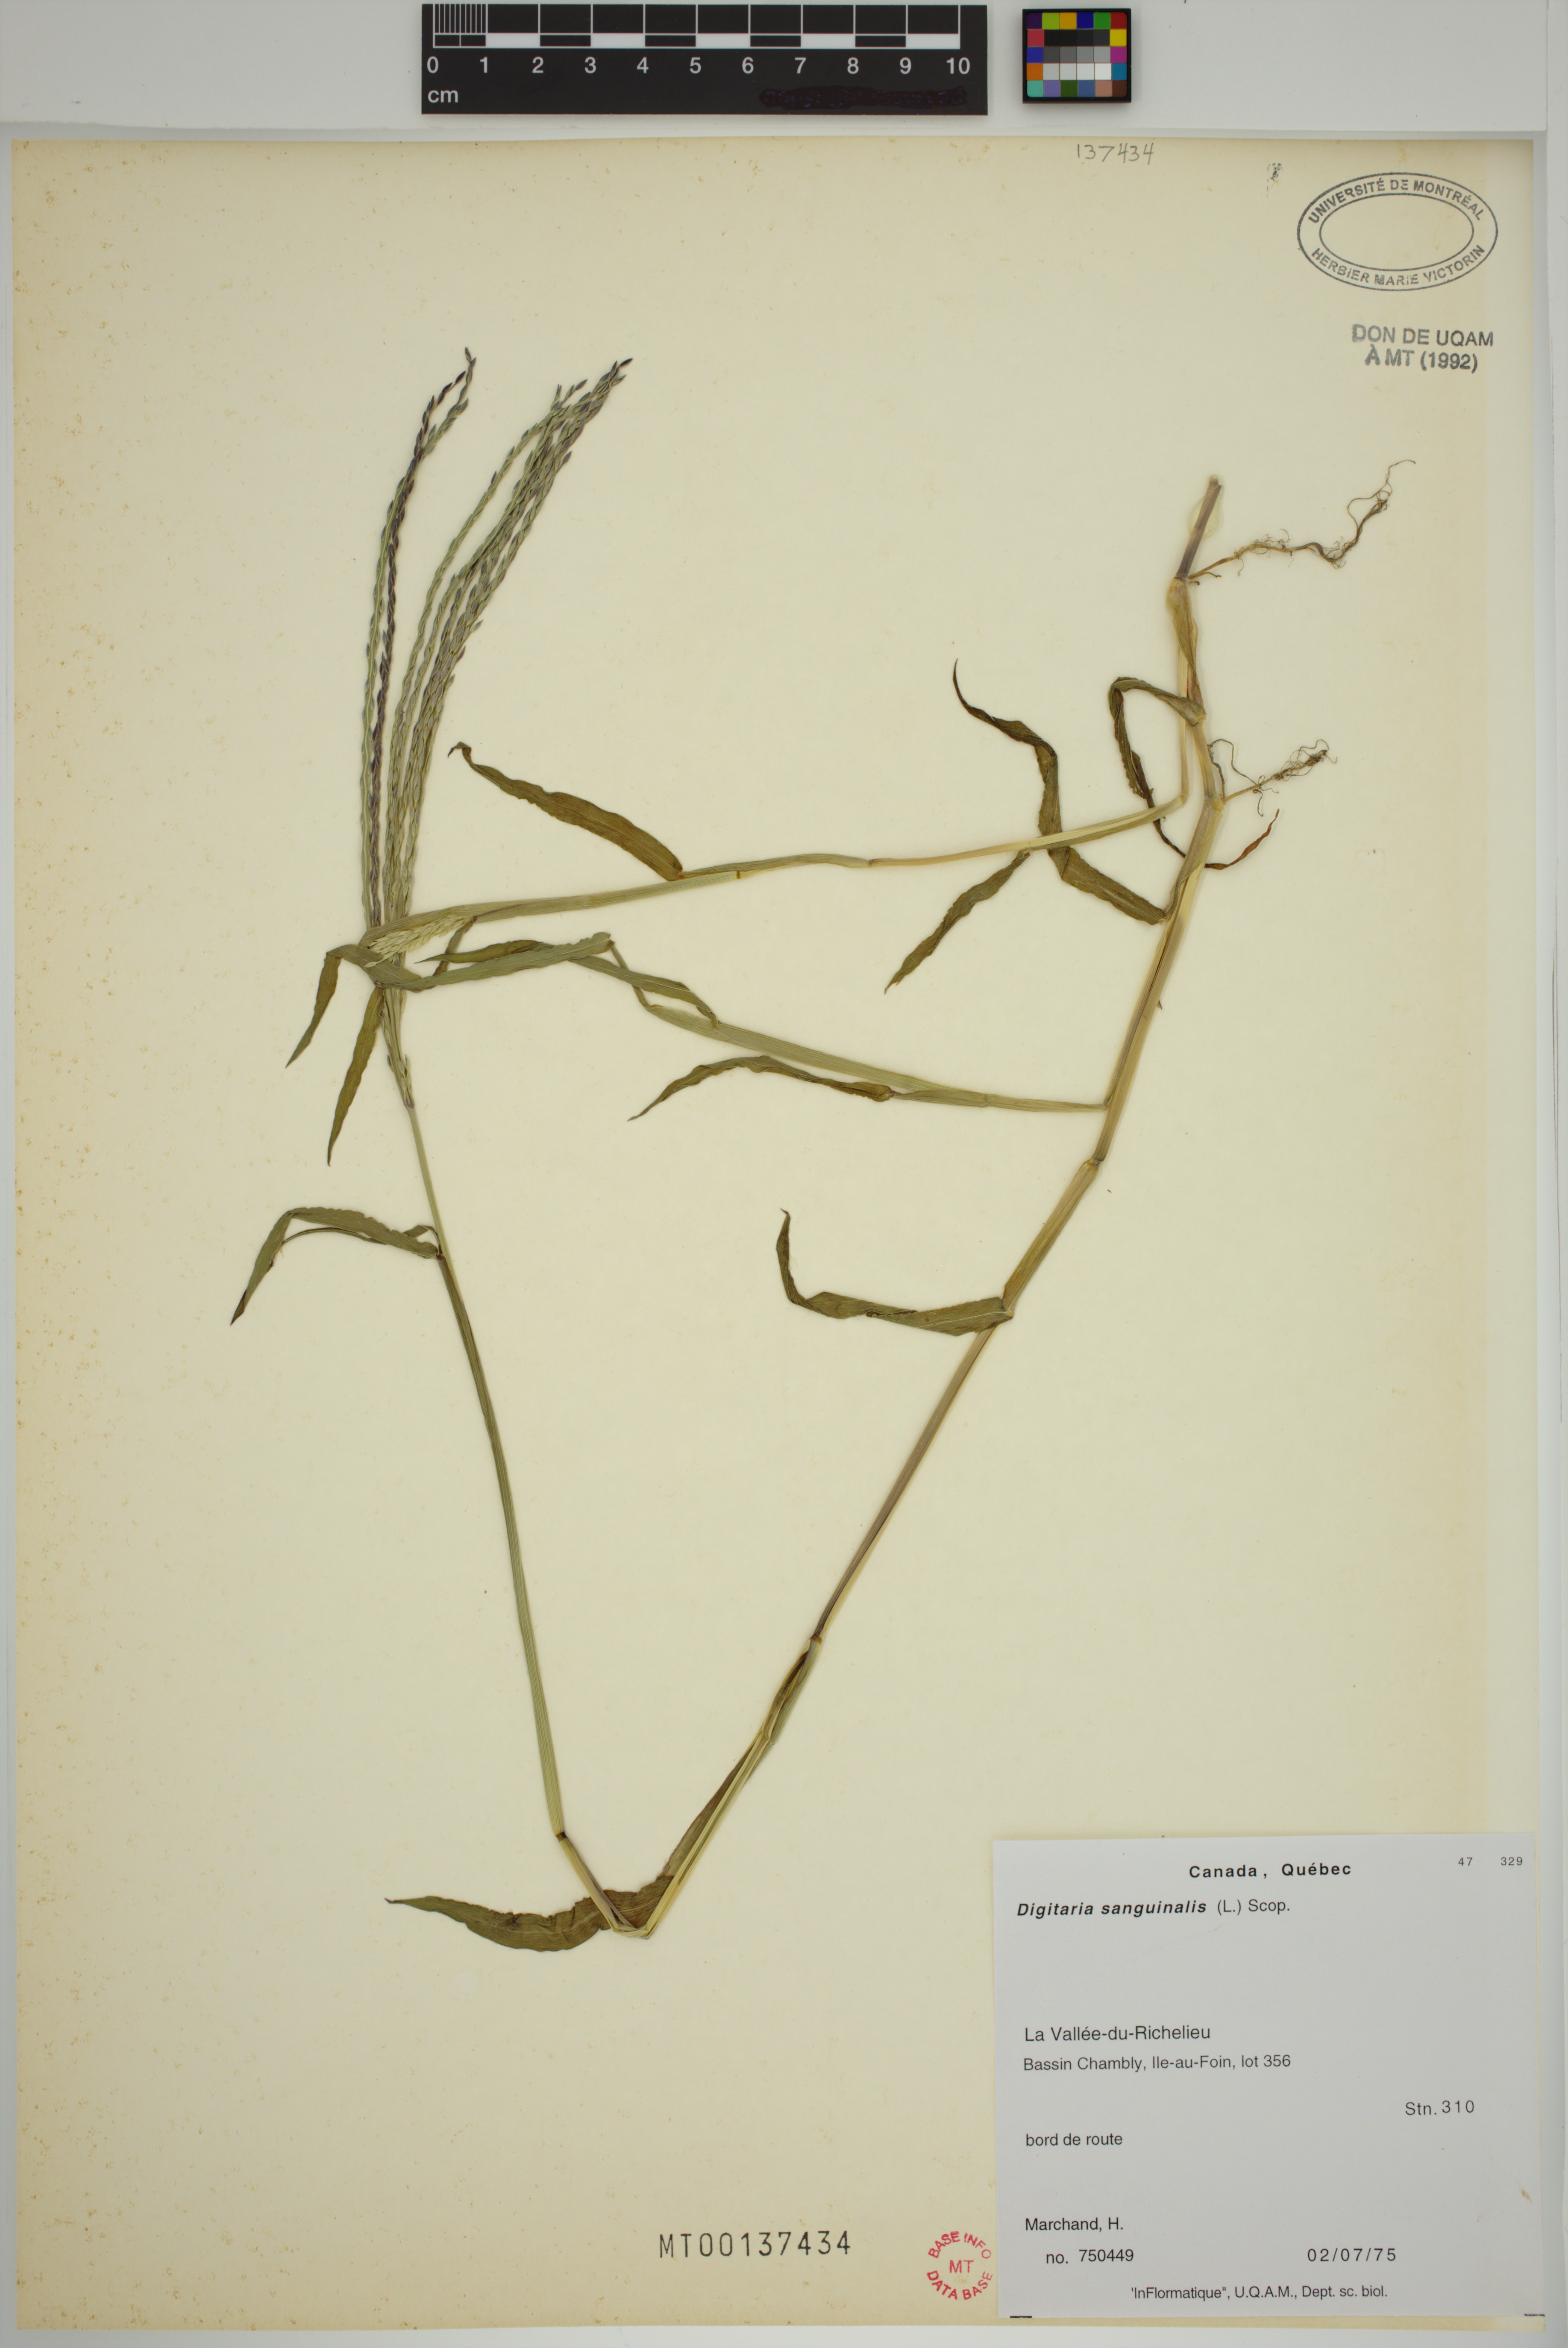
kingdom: Plantae
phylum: Tracheophyta
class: Liliopsida
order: Poales
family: Poaceae
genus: Digitaria
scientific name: Digitaria sanguinalis
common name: Hairy crabgrass
